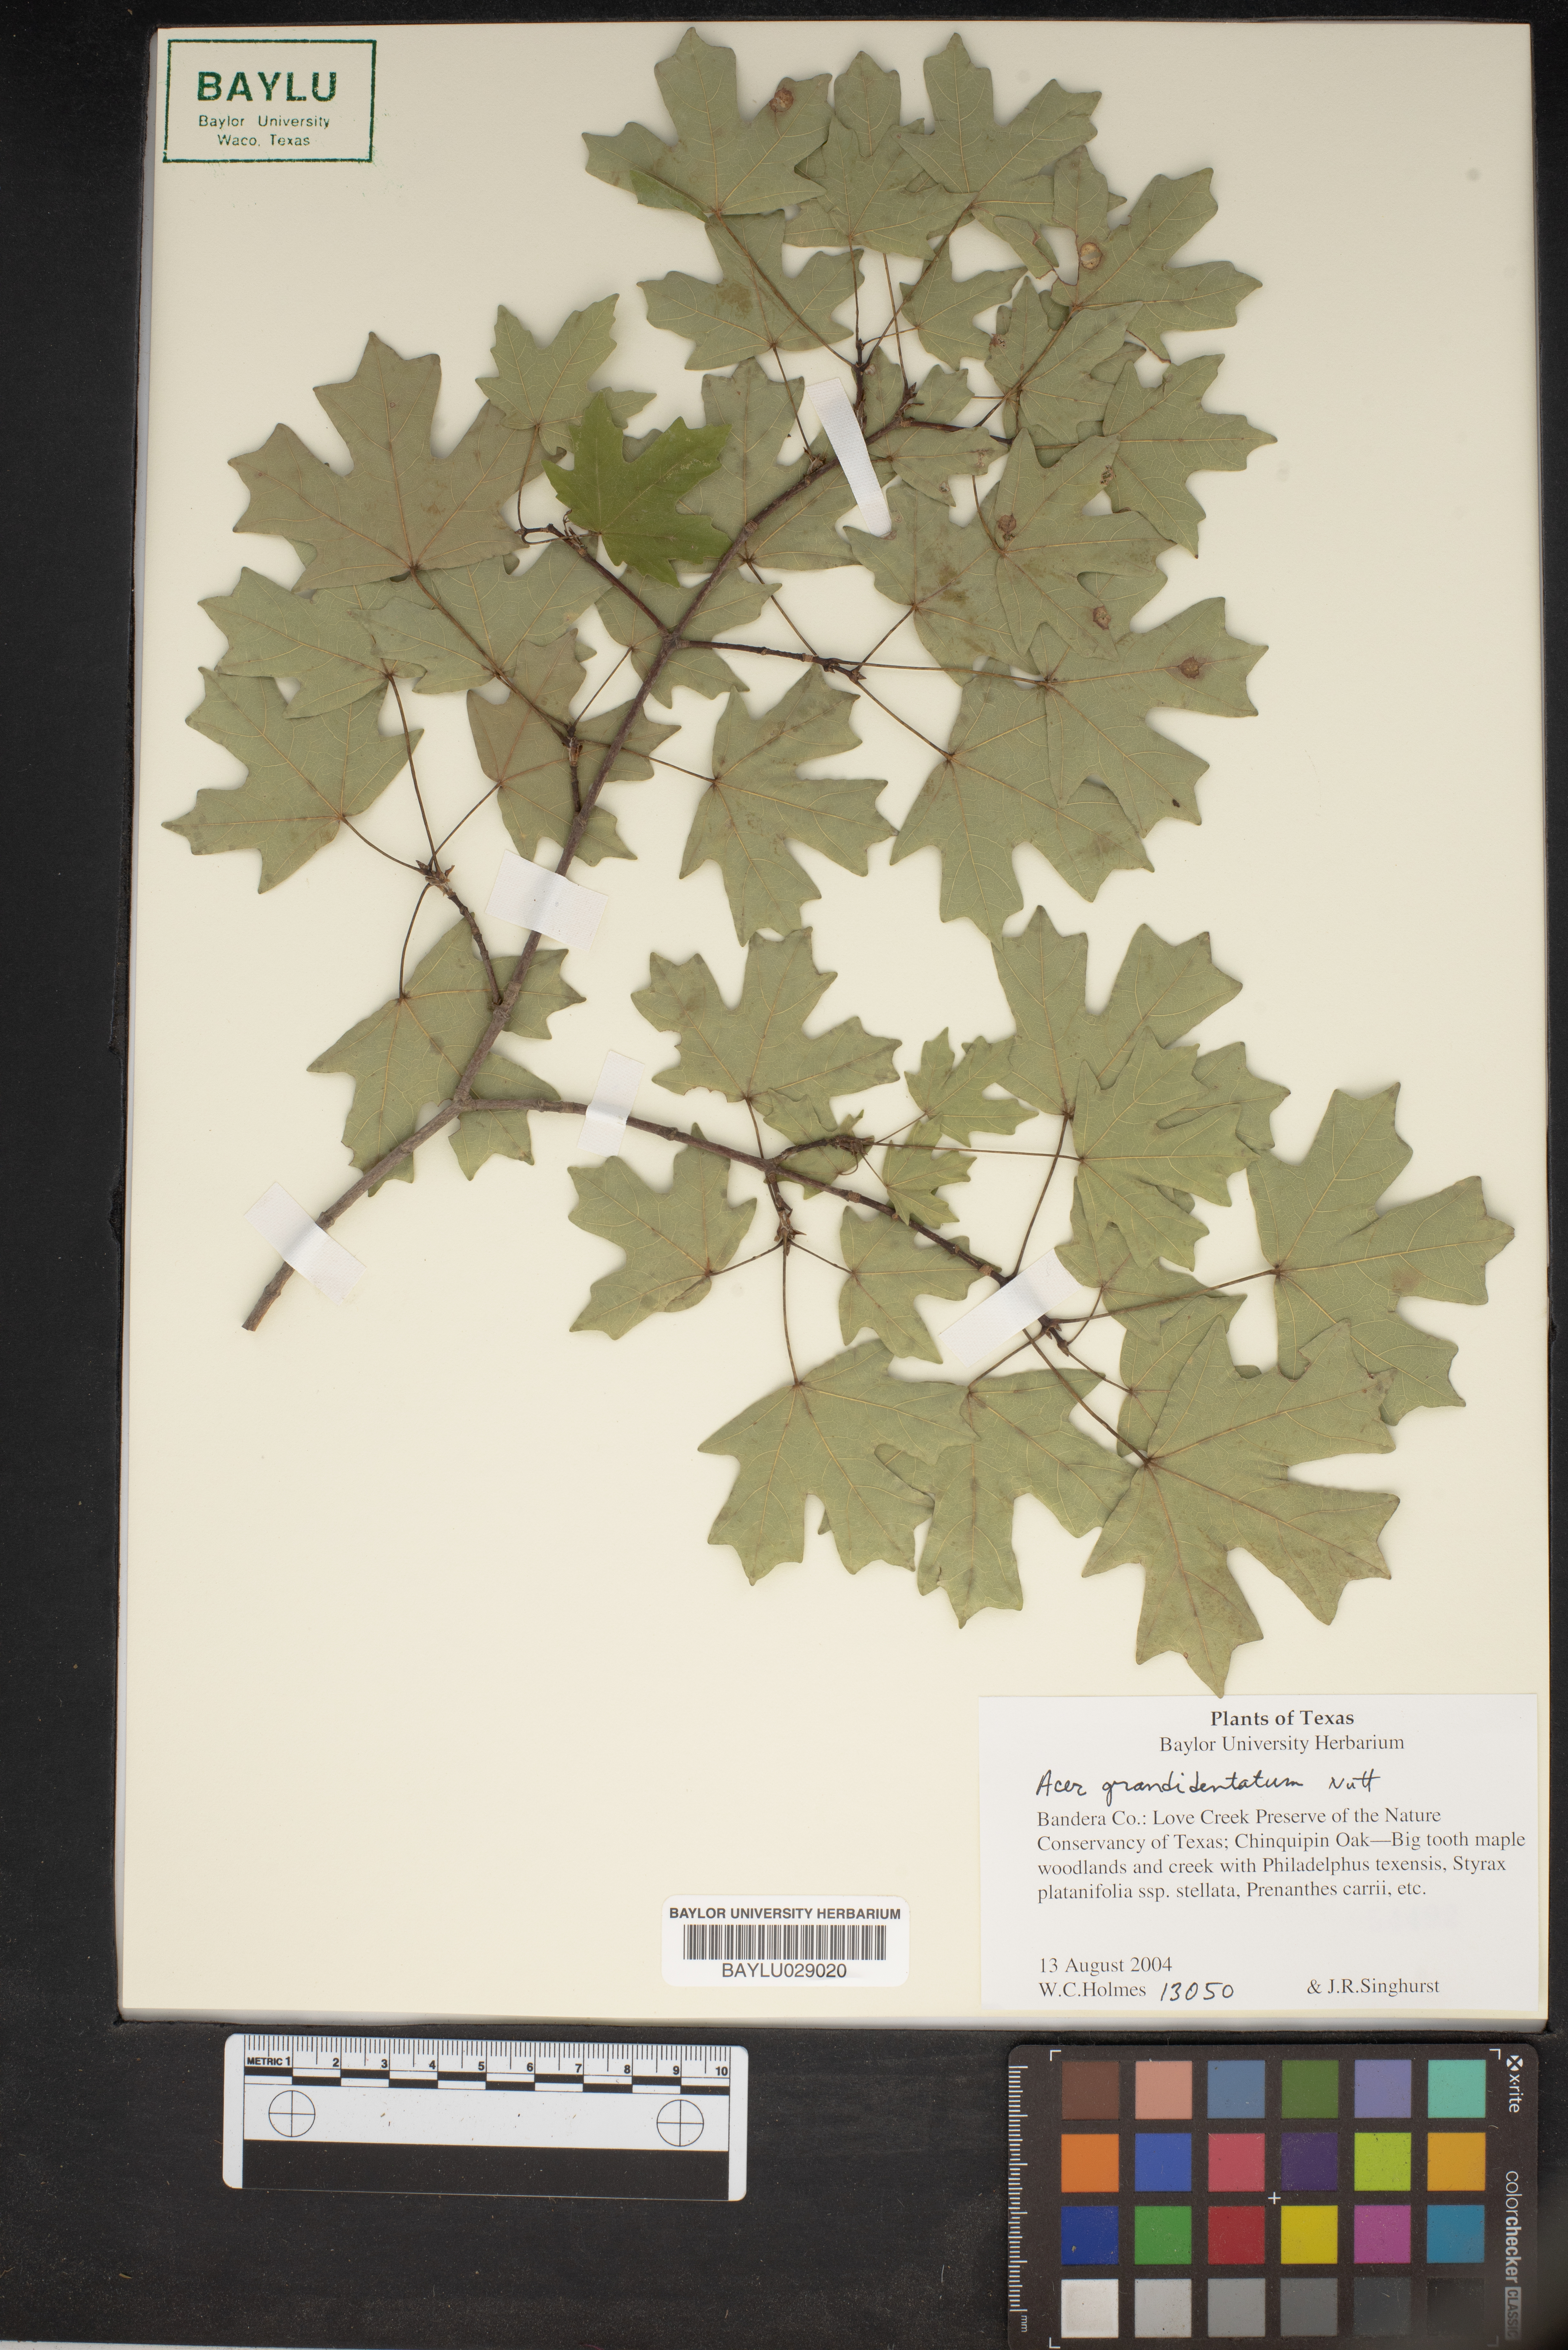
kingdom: Plantae
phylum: Tracheophyta
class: Magnoliopsida
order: Sapindales
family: Sapindaceae
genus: Acer
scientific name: Acer grandidentatum
